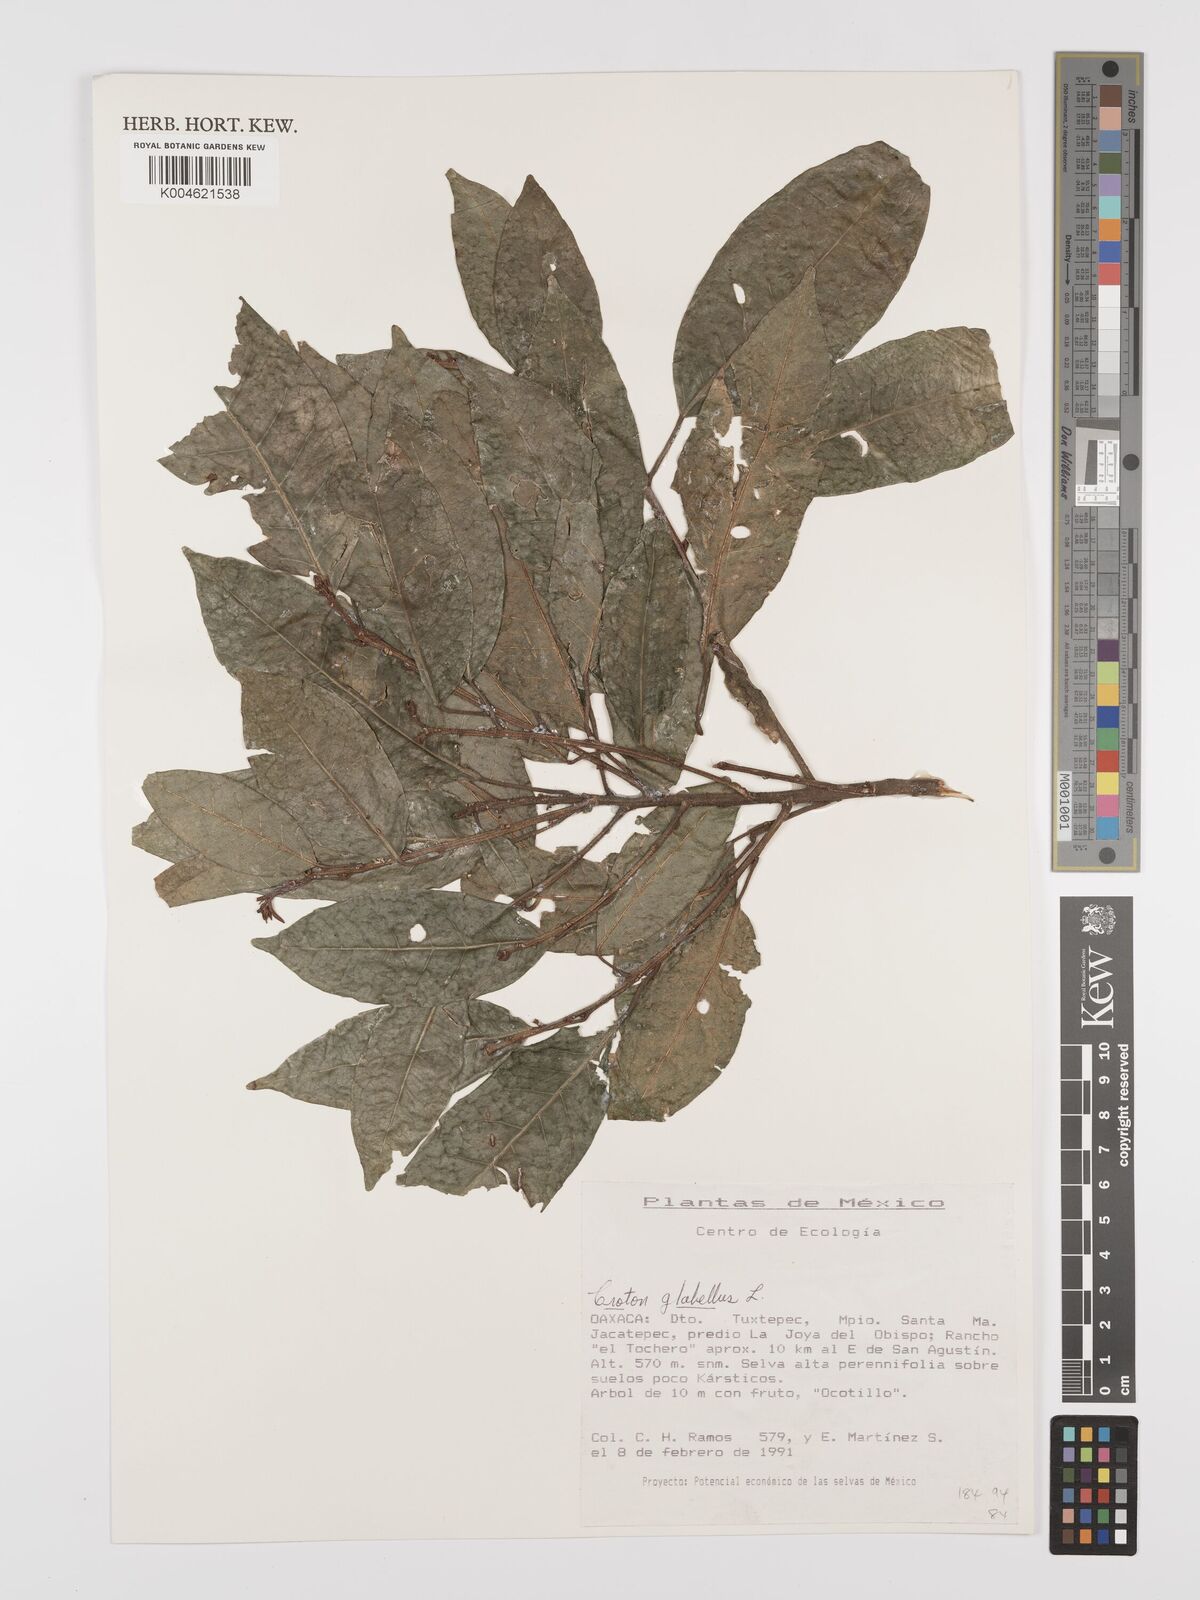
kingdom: Plantae
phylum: Tracheophyta
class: Magnoliopsida
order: Malpighiales
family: Euphorbiaceae
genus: Croton
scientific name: Croton glabellus
